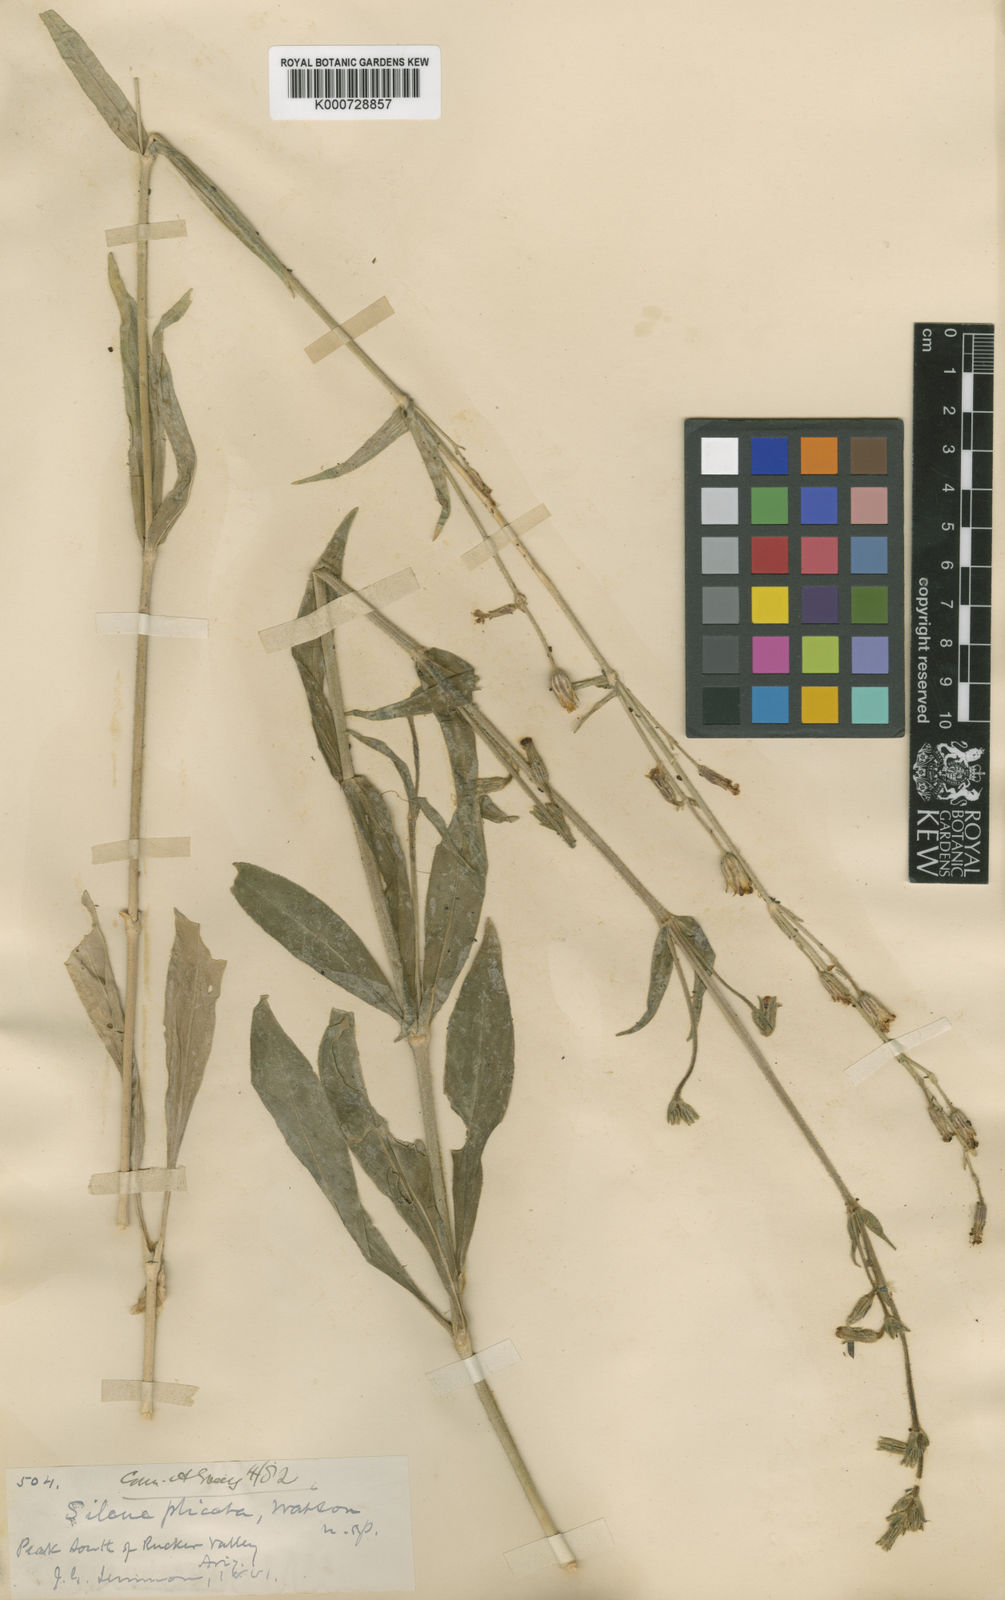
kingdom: Plantae
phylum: Tracheophyta
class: Magnoliopsida
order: Caryophyllales
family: Caryophyllaceae
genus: Silene
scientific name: Silene thurberi
